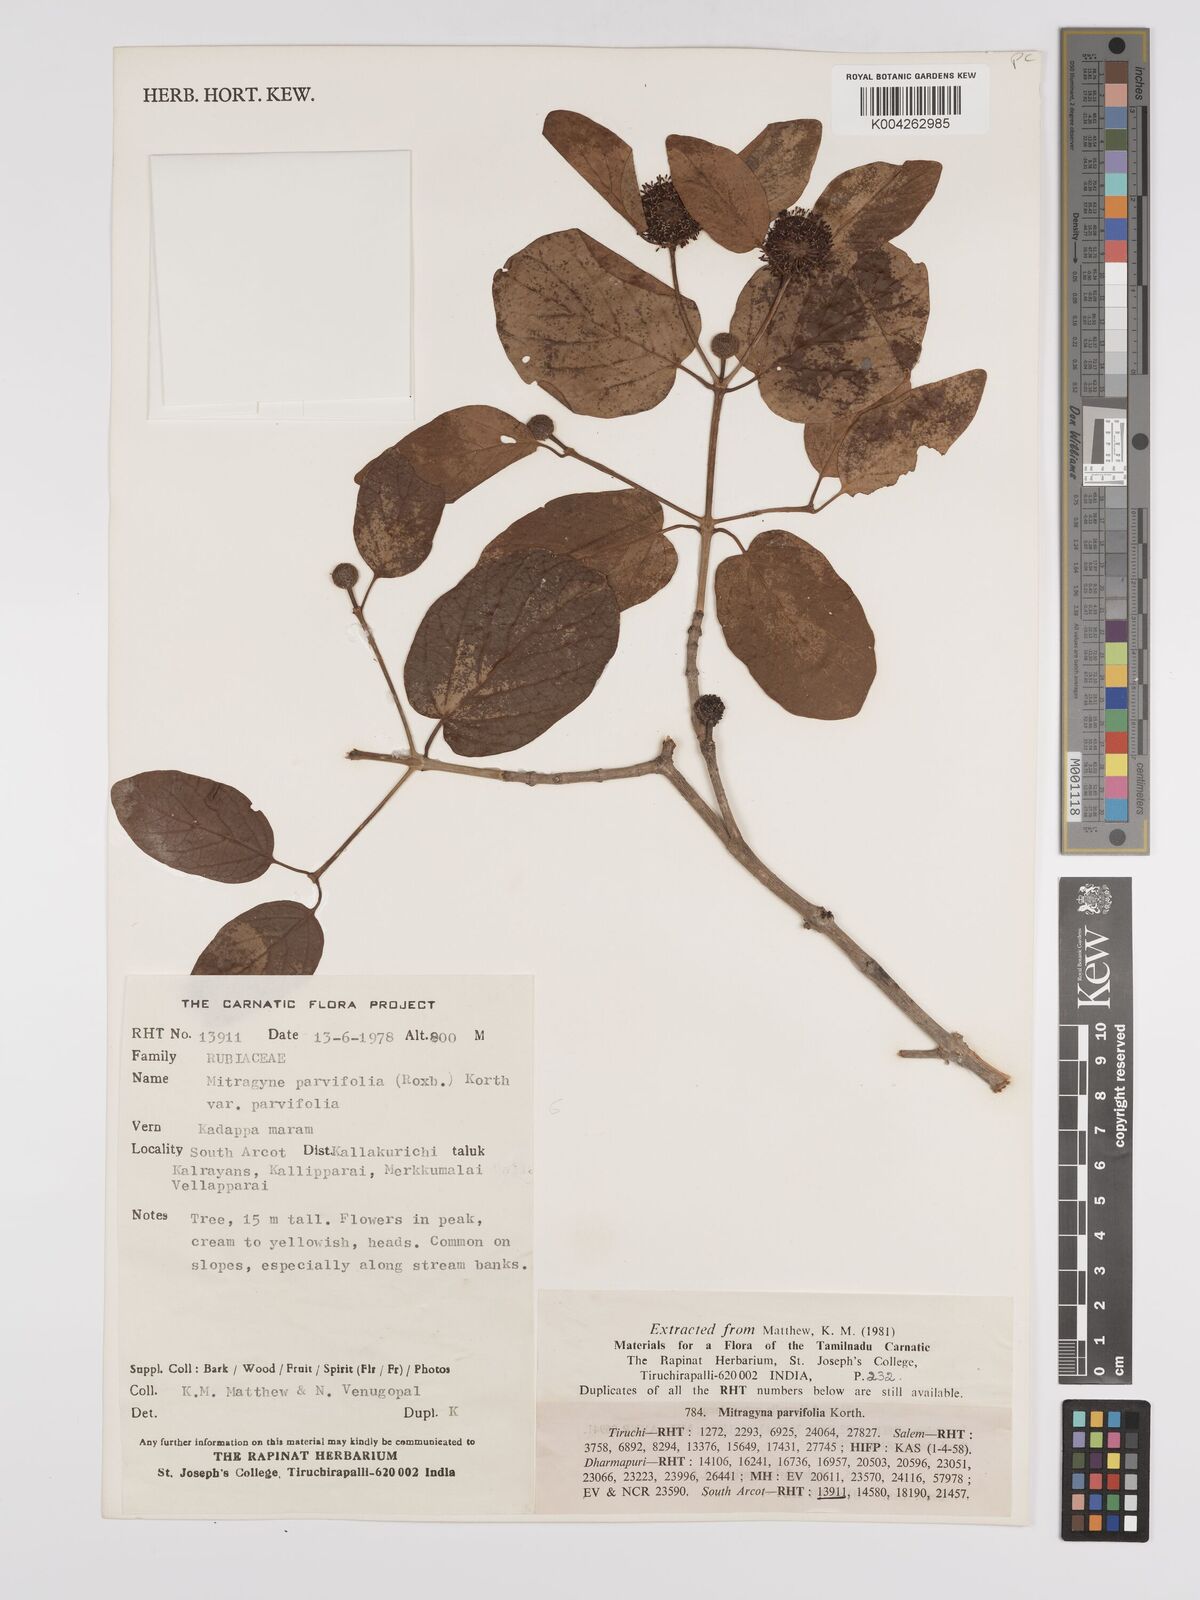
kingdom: Plantae
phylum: Tracheophyta
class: Magnoliopsida
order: Gentianales
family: Rubiaceae
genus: Mitragyna
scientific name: Mitragyna parvifolia
